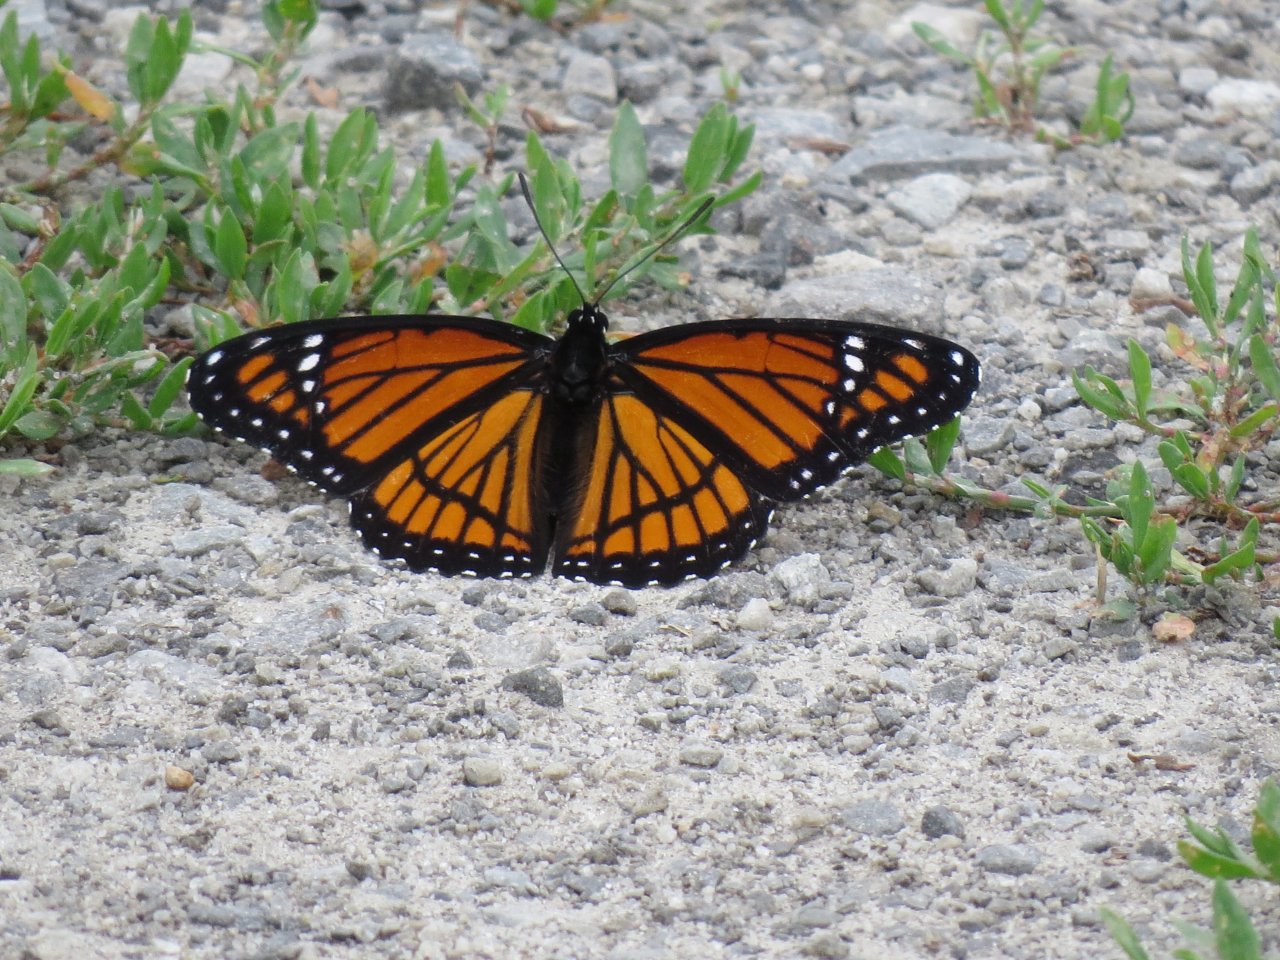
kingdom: Animalia
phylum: Arthropoda
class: Insecta
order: Lepidoptera
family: Nymphalidae
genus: Limenitis
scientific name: Limenitis archippus
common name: Viceroy
